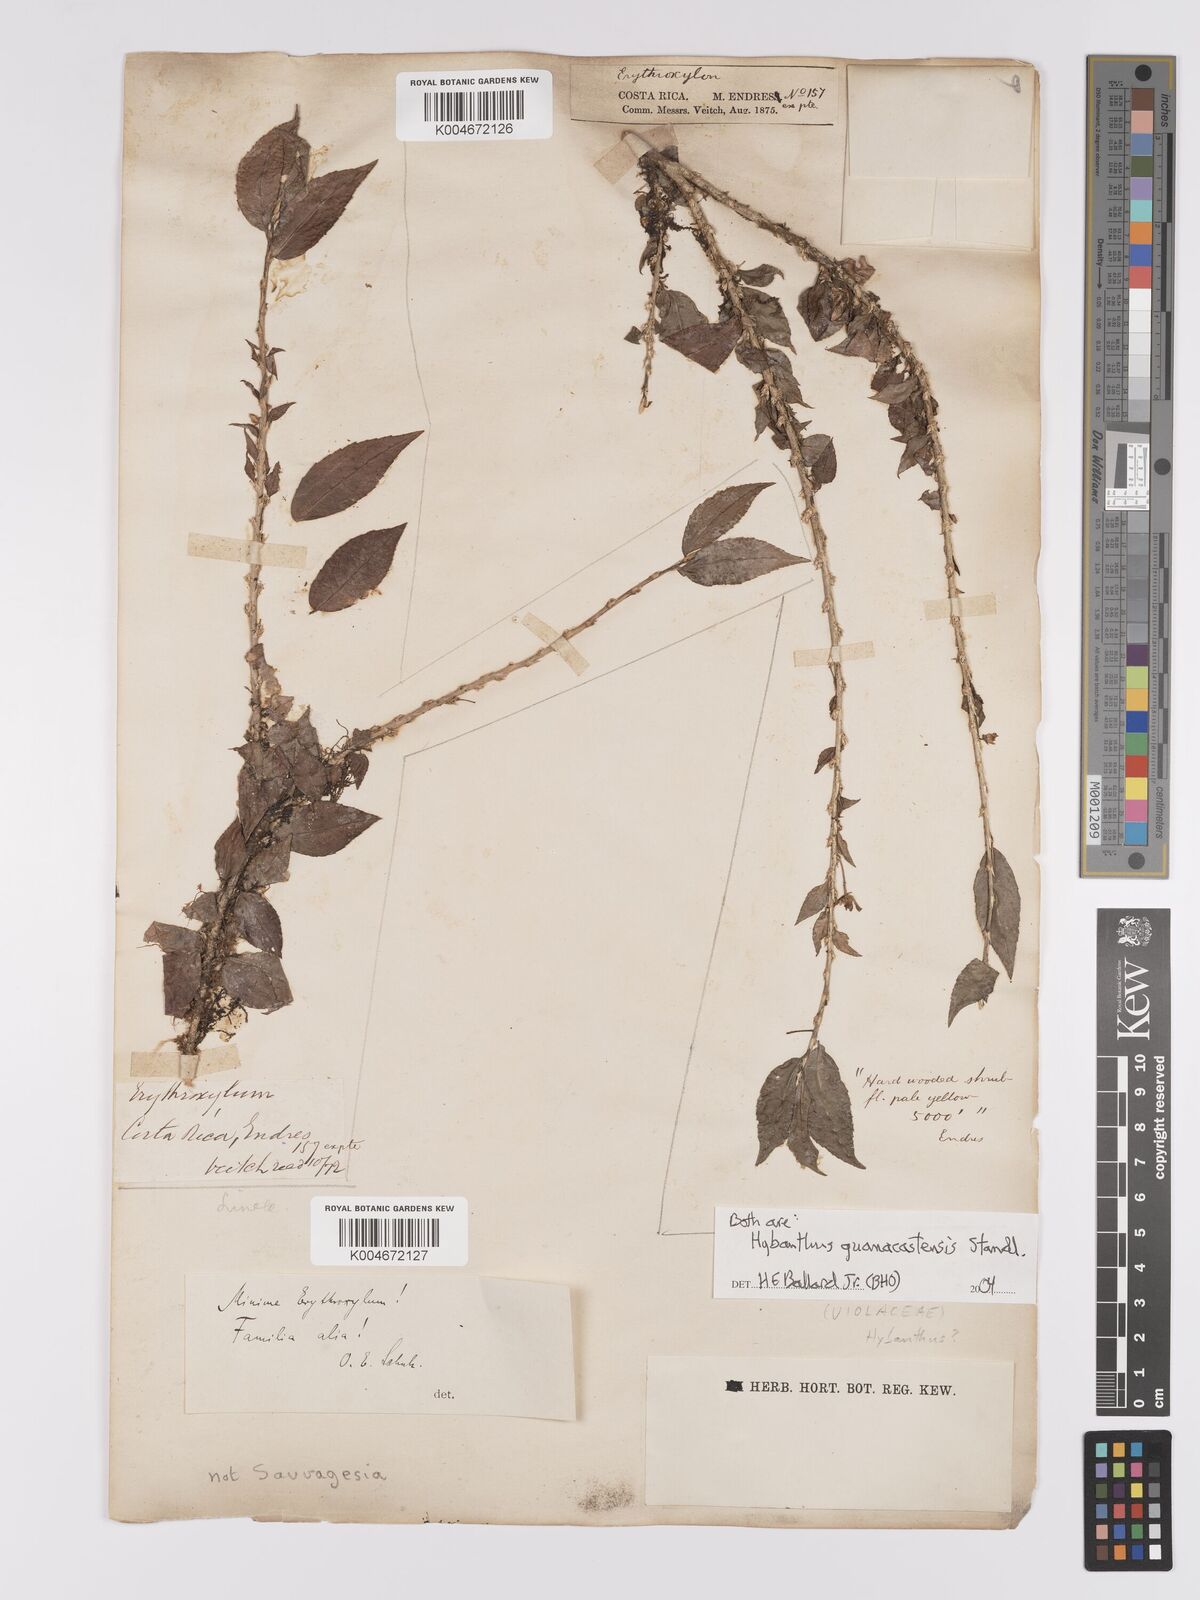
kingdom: Plantae
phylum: Tracheophyta
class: Magnoliopsida
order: Malpighiales
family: Violaceae
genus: Hybanthus
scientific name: Hybanthus guanacastensis
